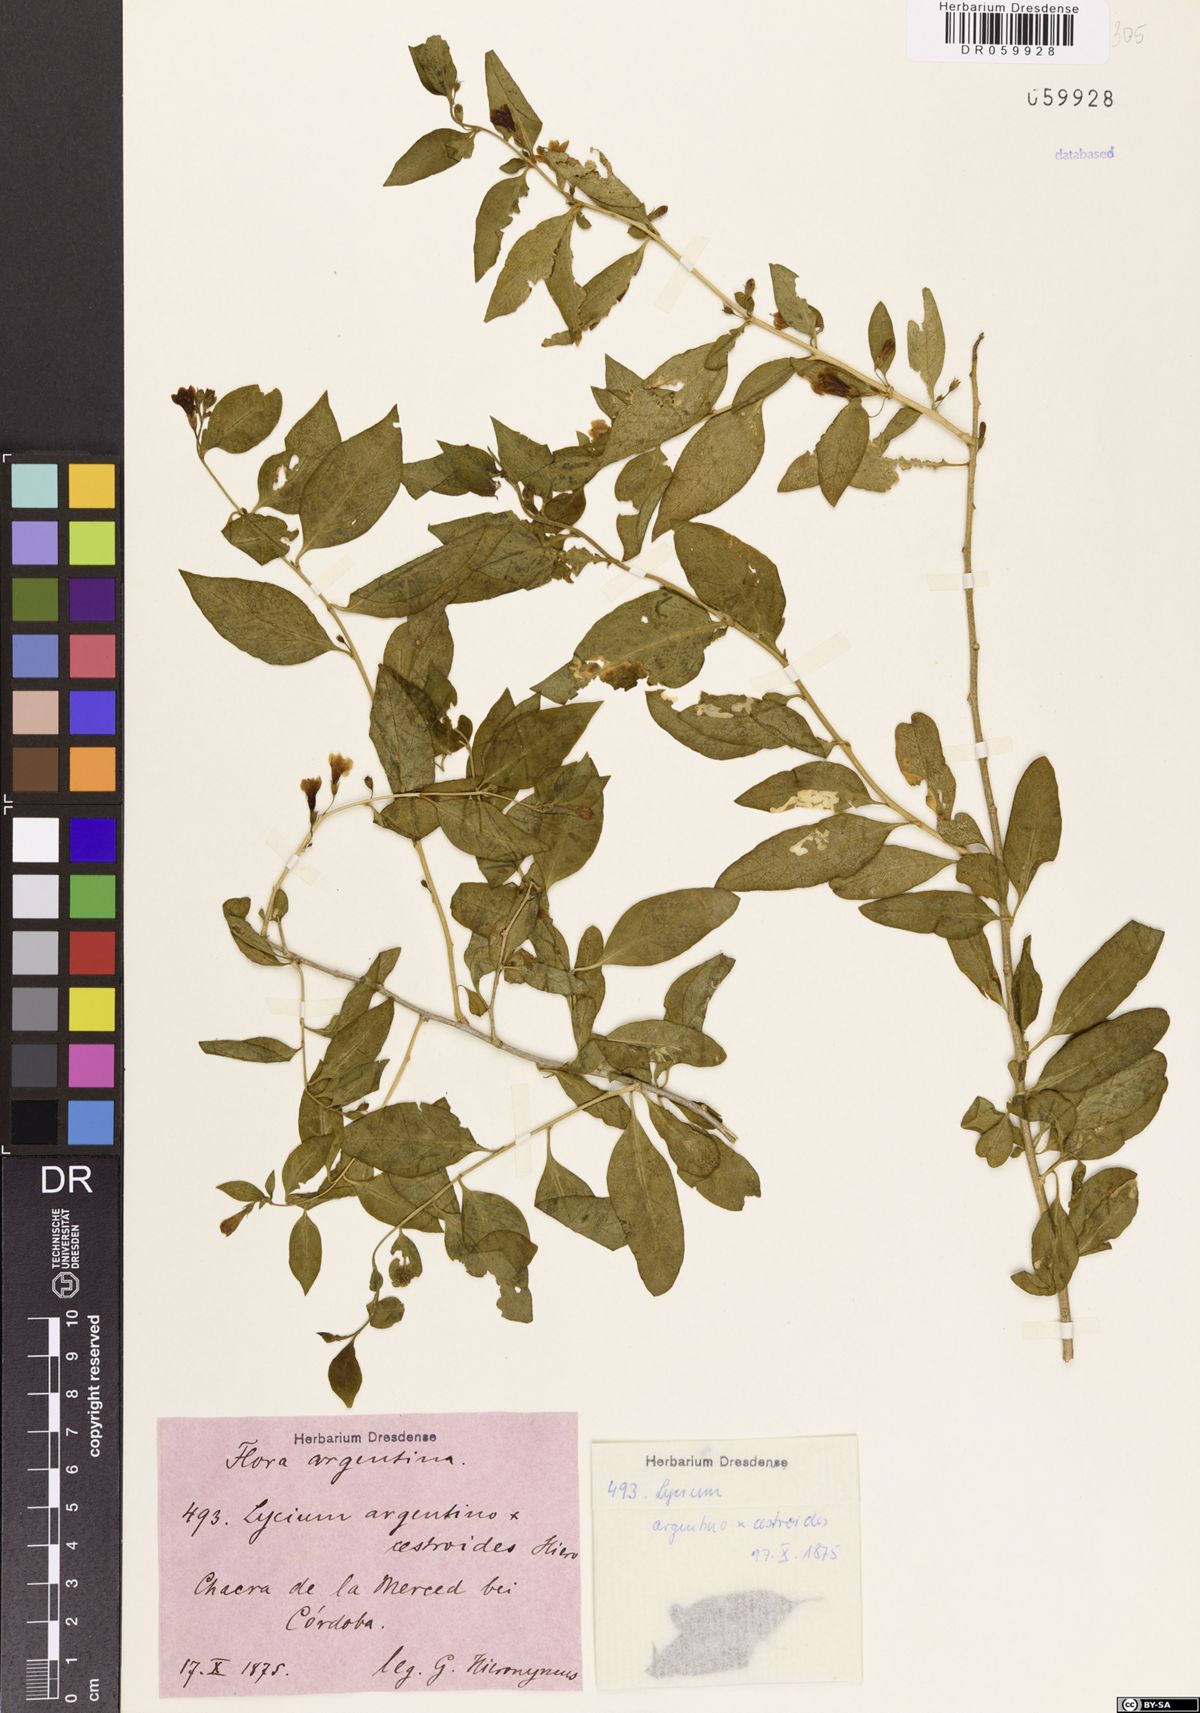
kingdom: Plantae
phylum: Tracheophyta
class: Magnoliopsida
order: Solanales
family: Solanaceae
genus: Lycium
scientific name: Lycium argentino-cestroides
